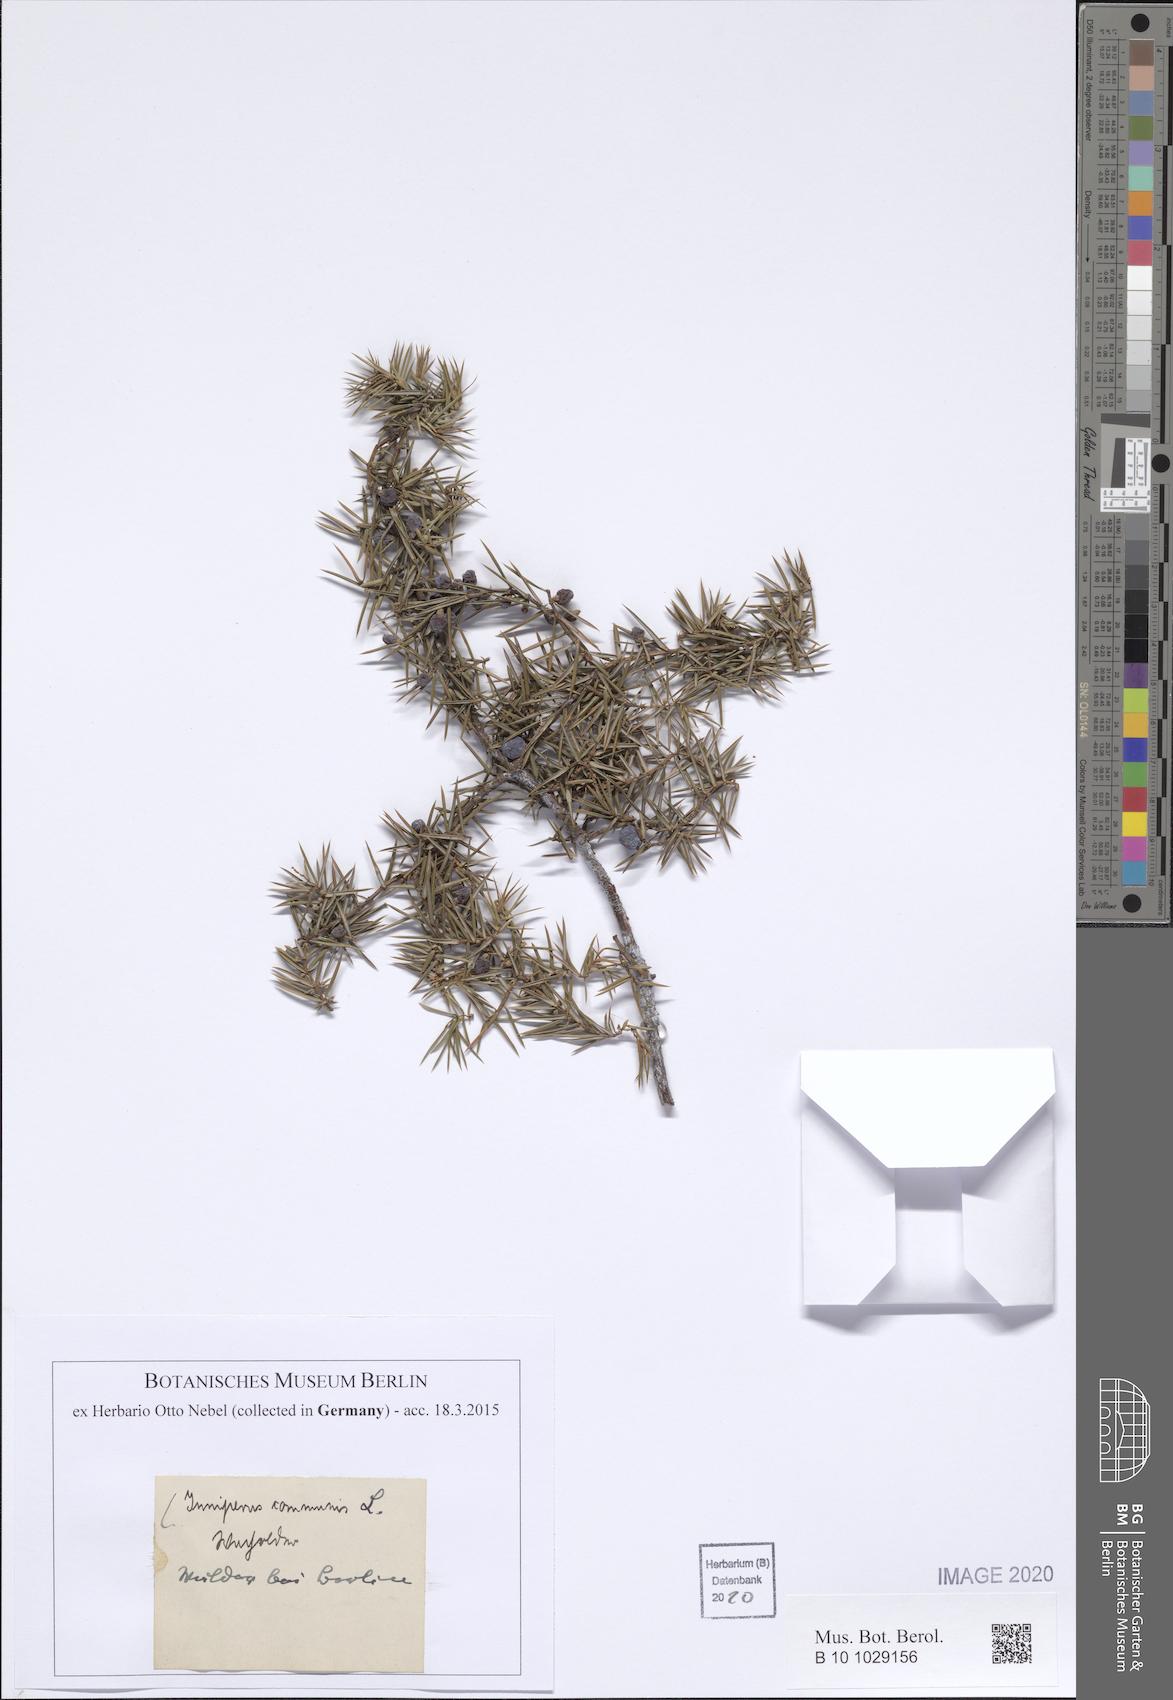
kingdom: Plantae
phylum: Tracheophyta
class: Pinopsida
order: Pinales
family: Cupressaceae
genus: Juniperus
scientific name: Juniperus communis
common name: Common juniper
